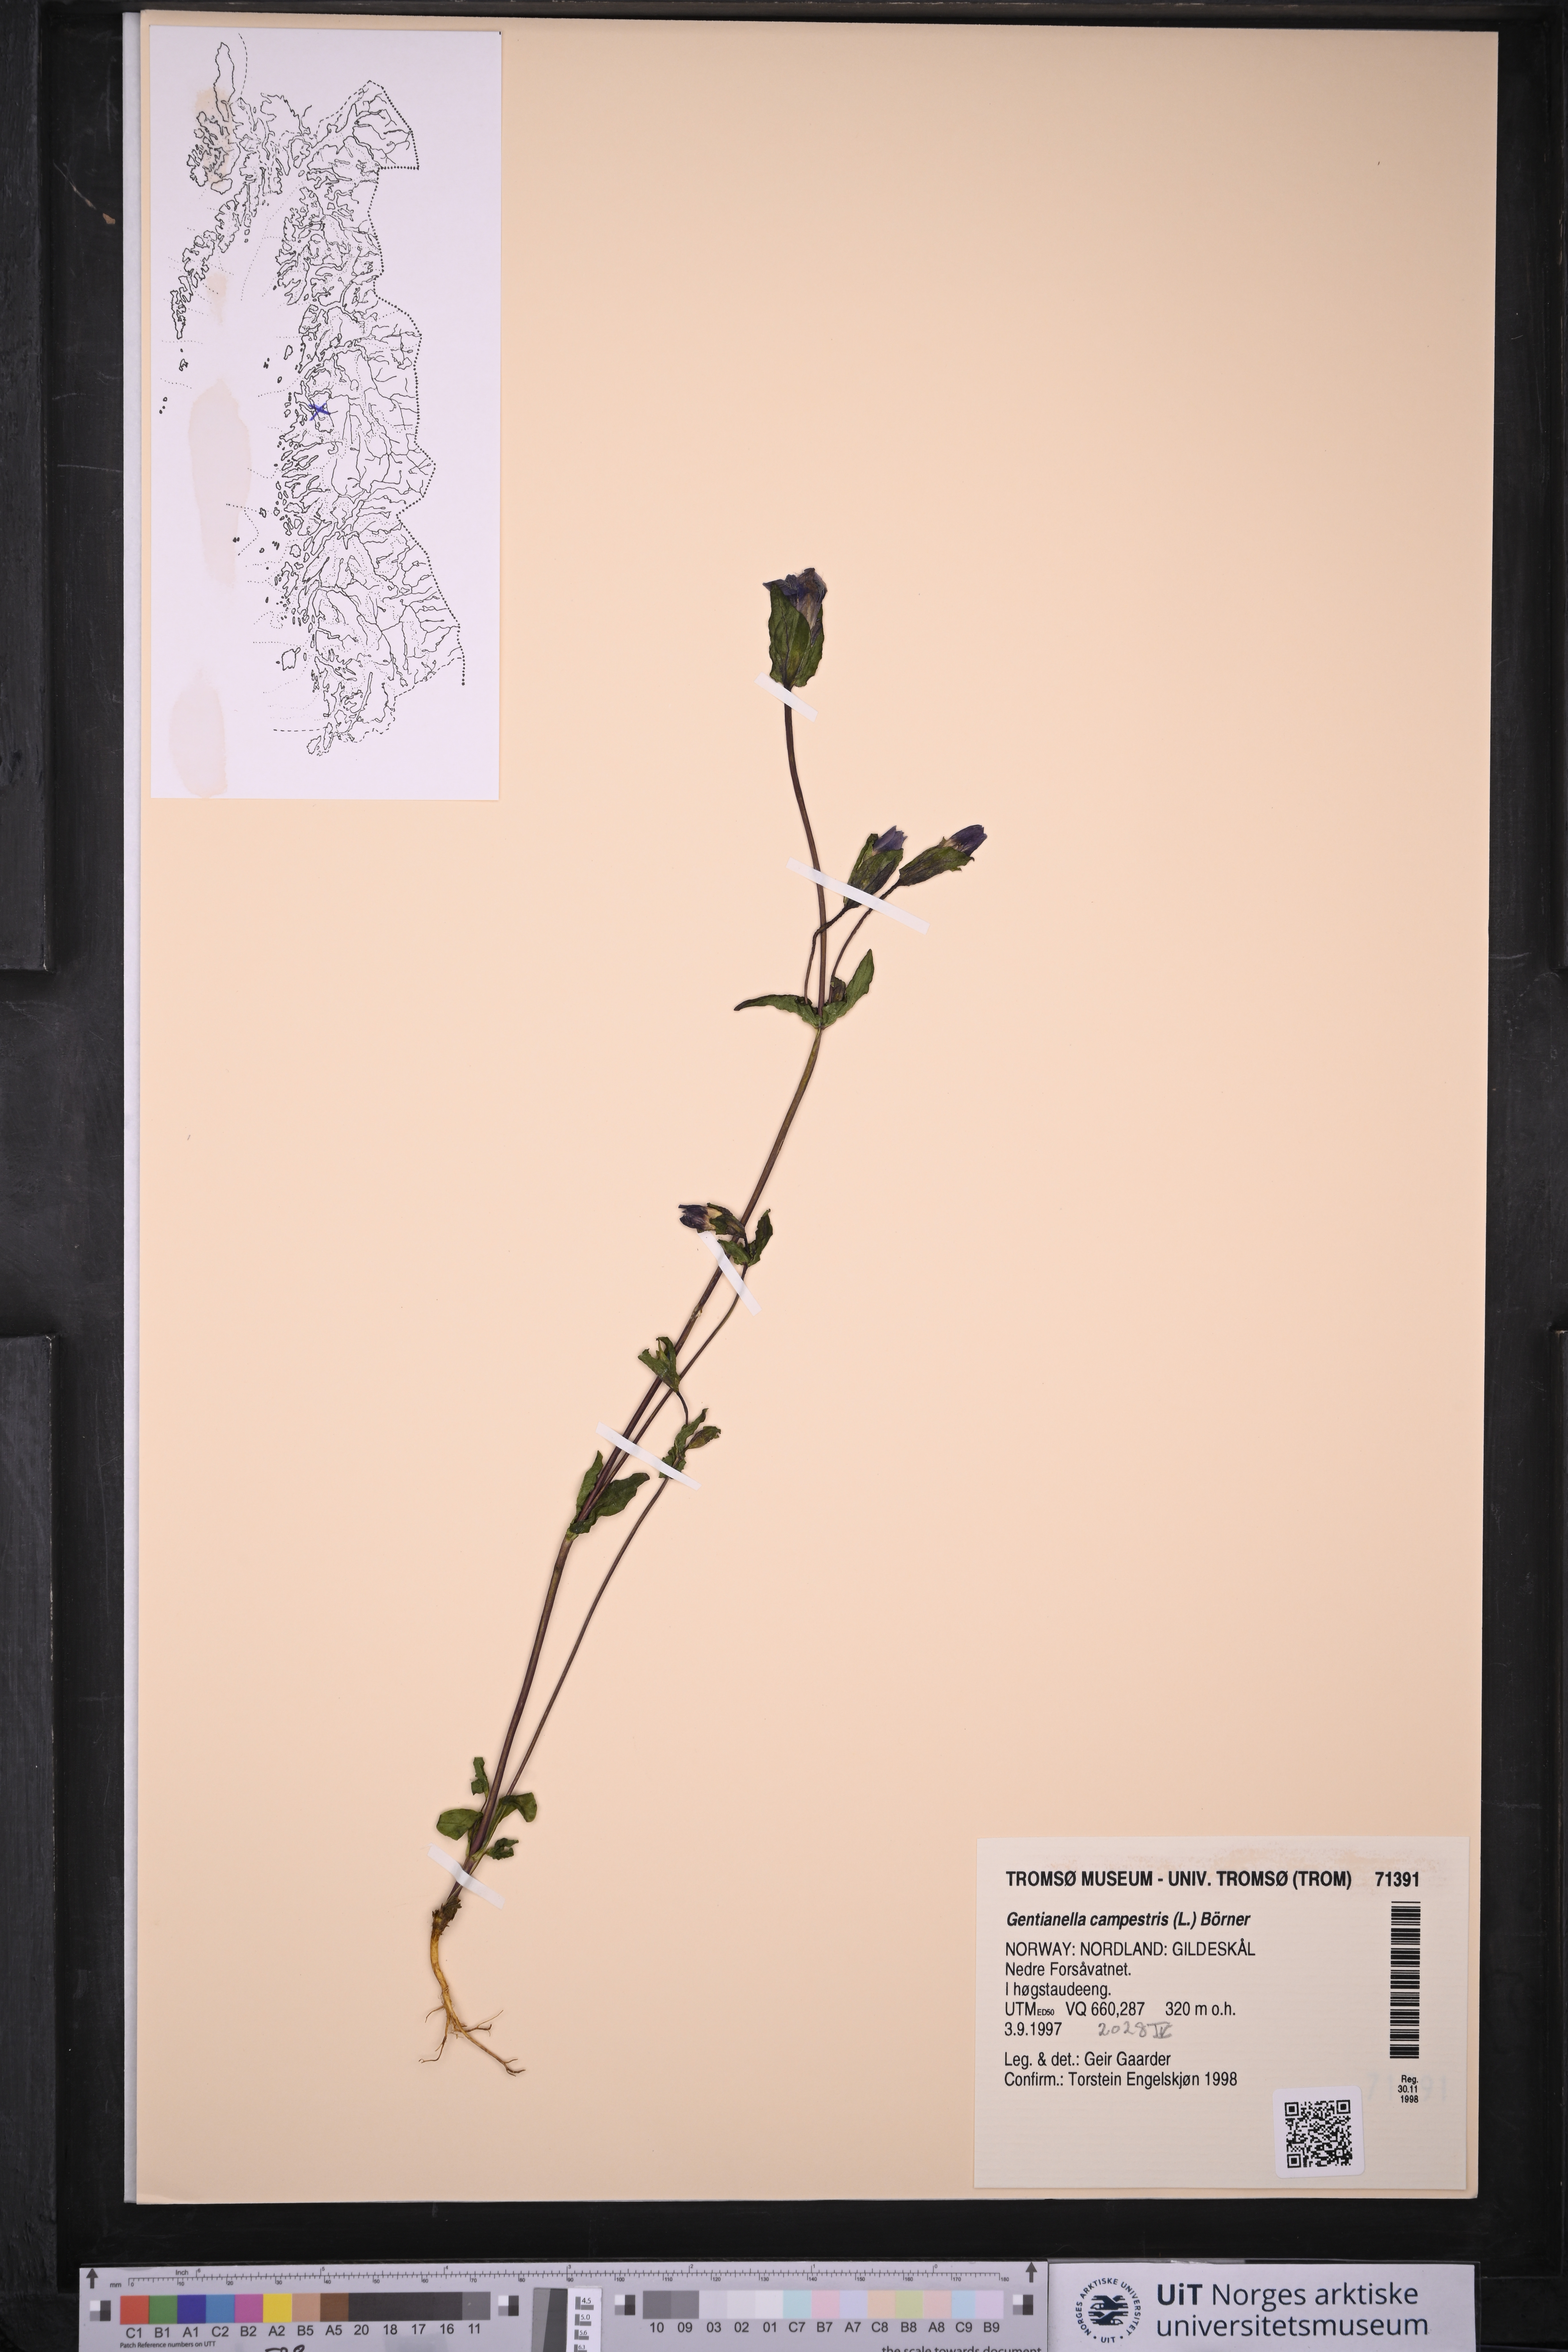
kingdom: Plantae
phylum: Tracheophyta
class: Magnoliopsida
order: Gentianales
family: Gentianaceae
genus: Gentianella
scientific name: Gentianella campestris
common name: Field gentian
